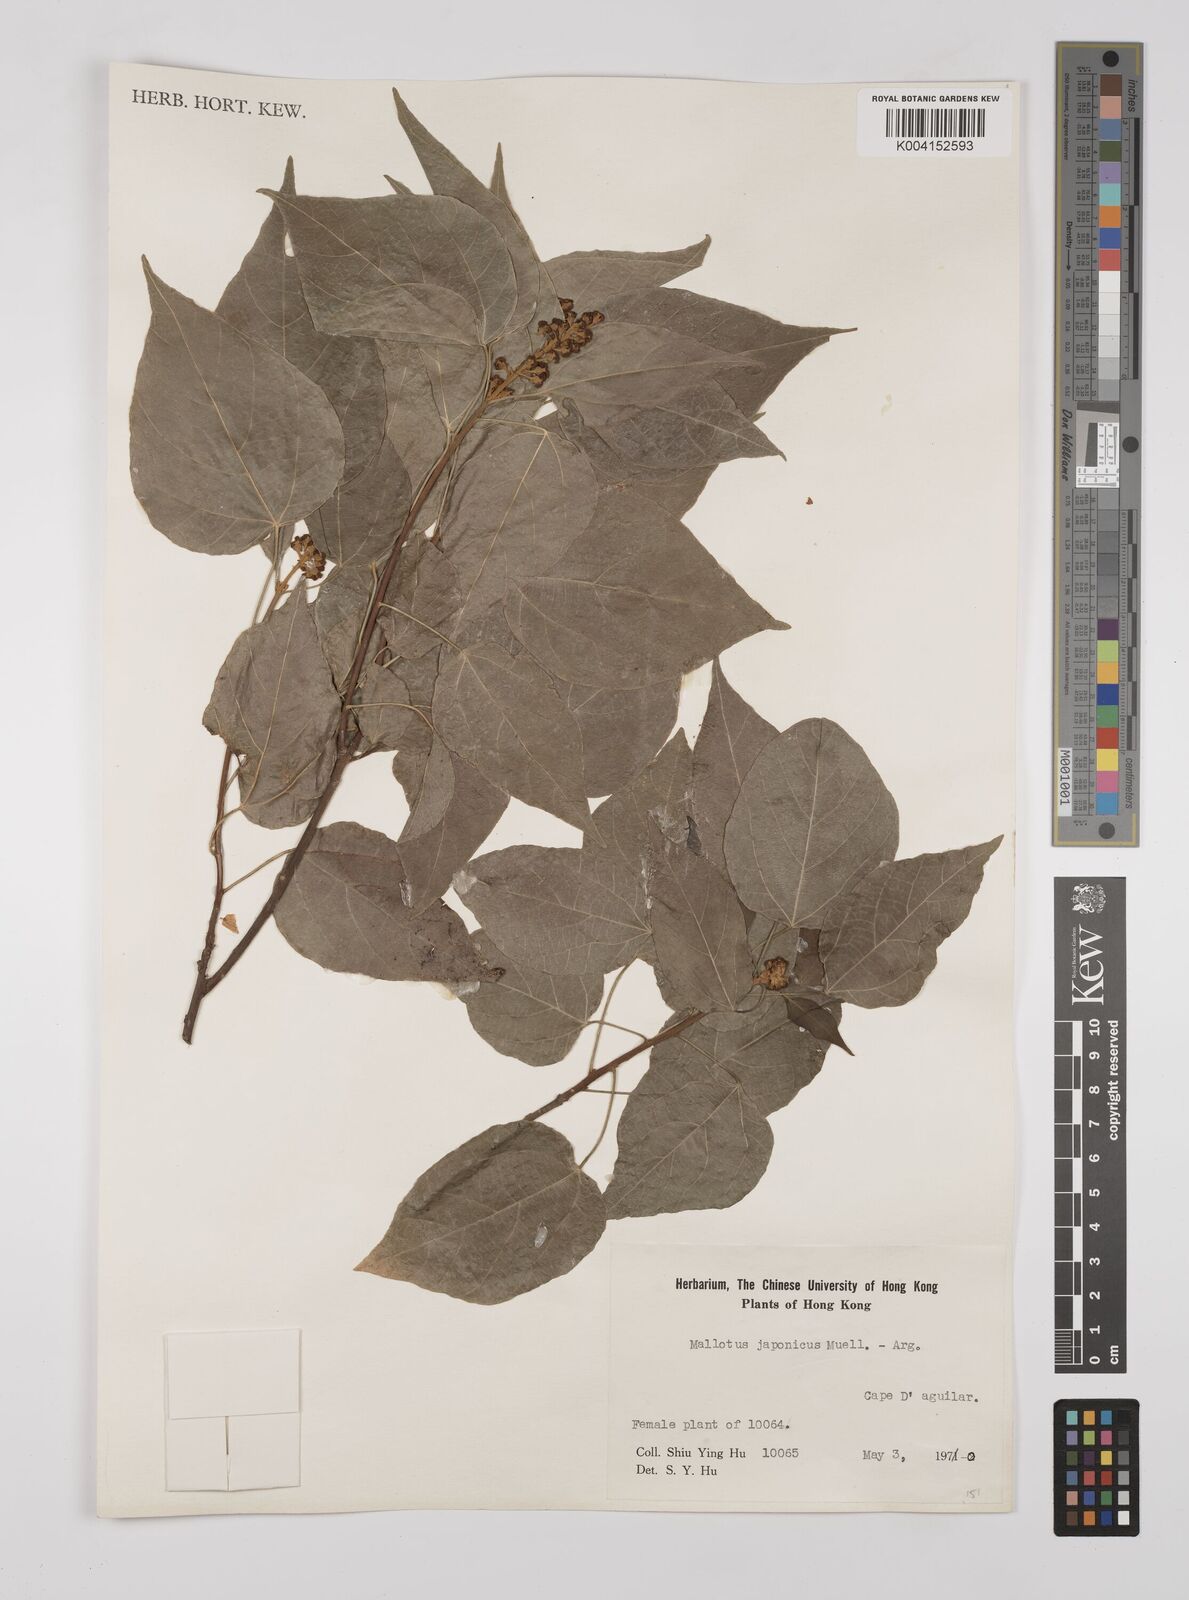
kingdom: Plantae
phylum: Tracheophyta
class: Magnoliopsida
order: Malpighiales
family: Euphorbiaceae
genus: Mallotus
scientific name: Mallotus japonicus
